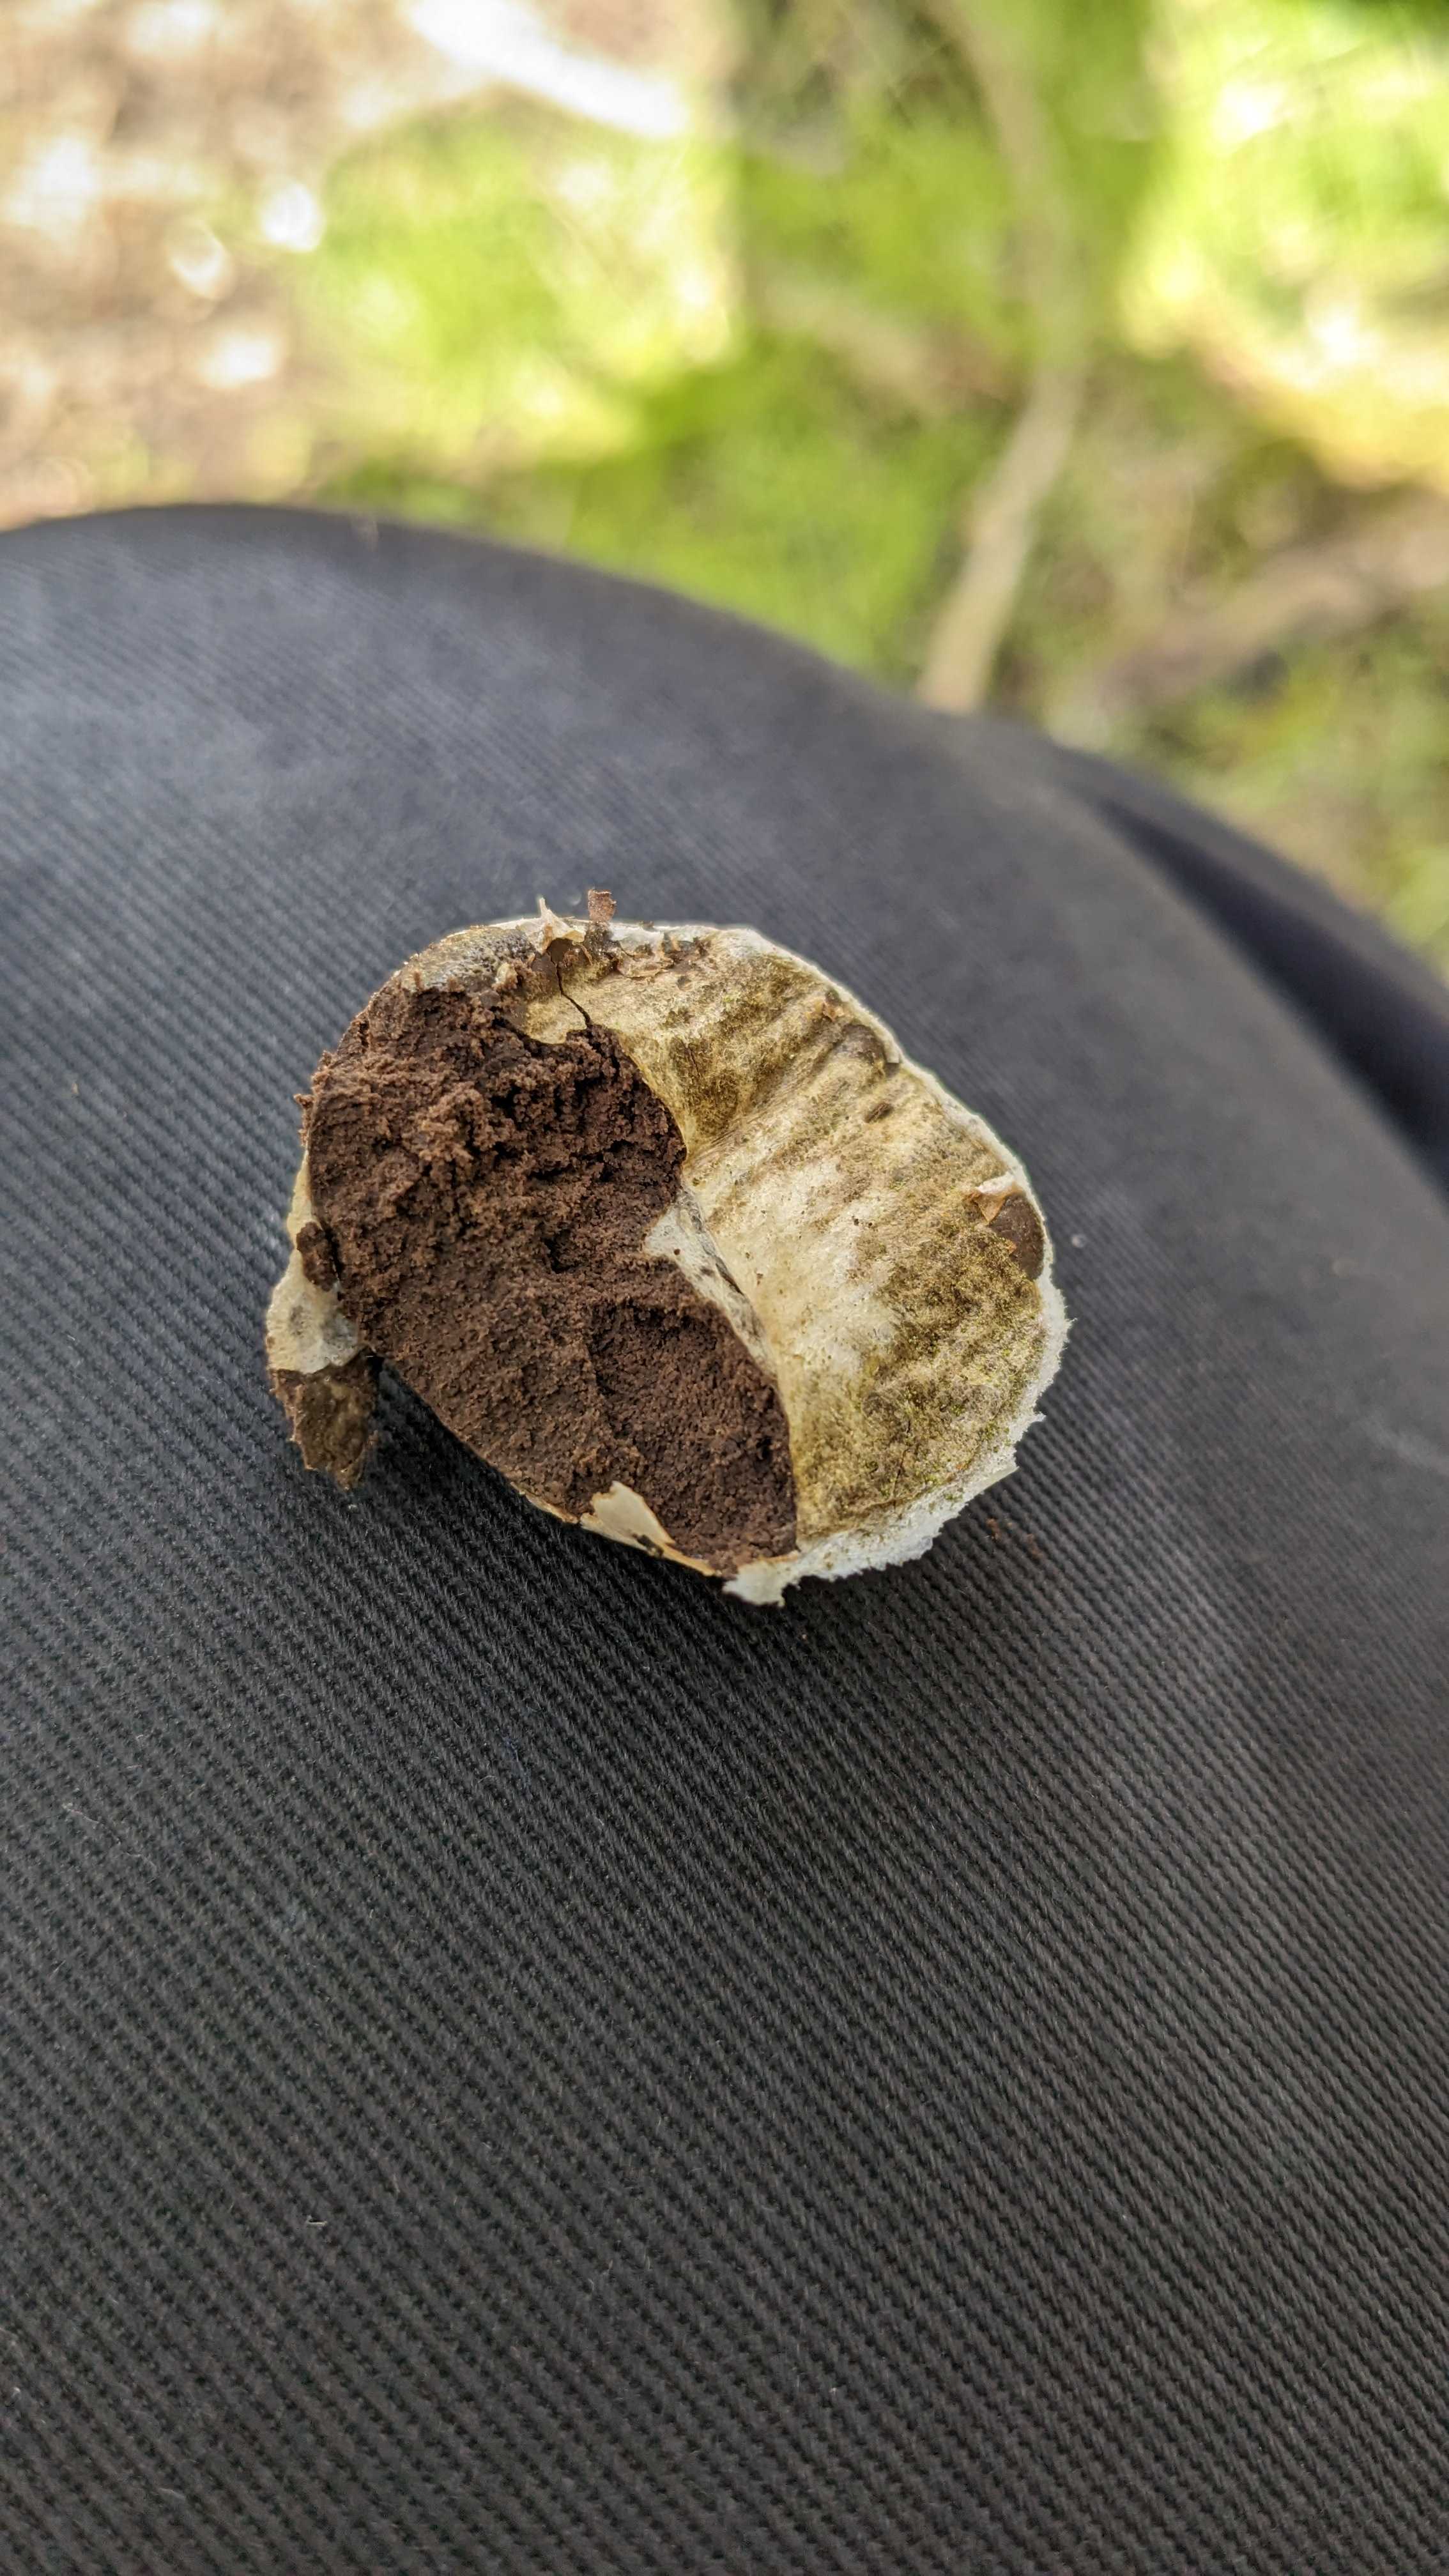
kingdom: Protozoa
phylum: Mycetozoa
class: Myxomycetes
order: Cribrariales
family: Tubiferaceae
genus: Reticularia
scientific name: Reticularia lycoperdon
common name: skinnende støvpude
